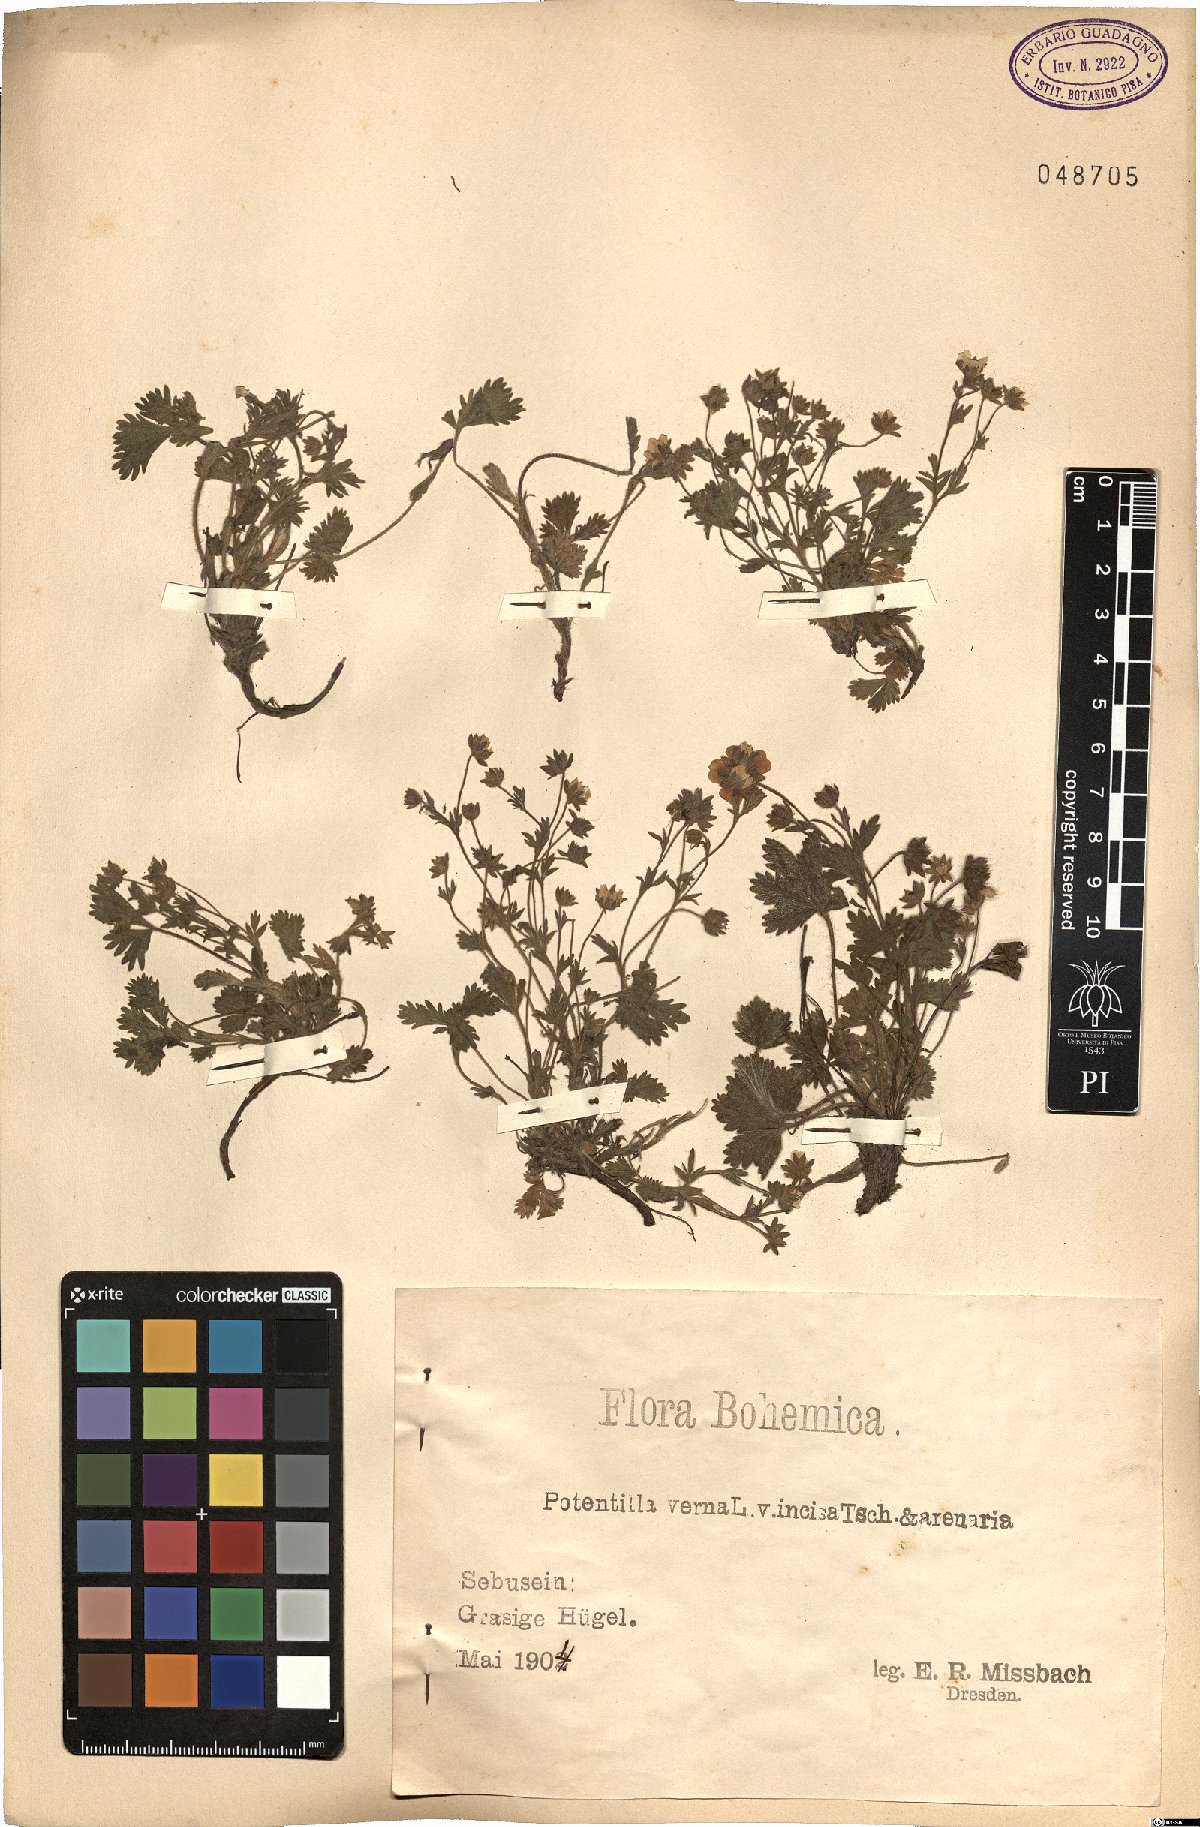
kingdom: Plantae
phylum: Tracheophyta
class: Magnoliopsida
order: Rosales
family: Rosaceae
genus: Potentilla
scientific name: Potentilla verna
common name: Spring cinquefoil
